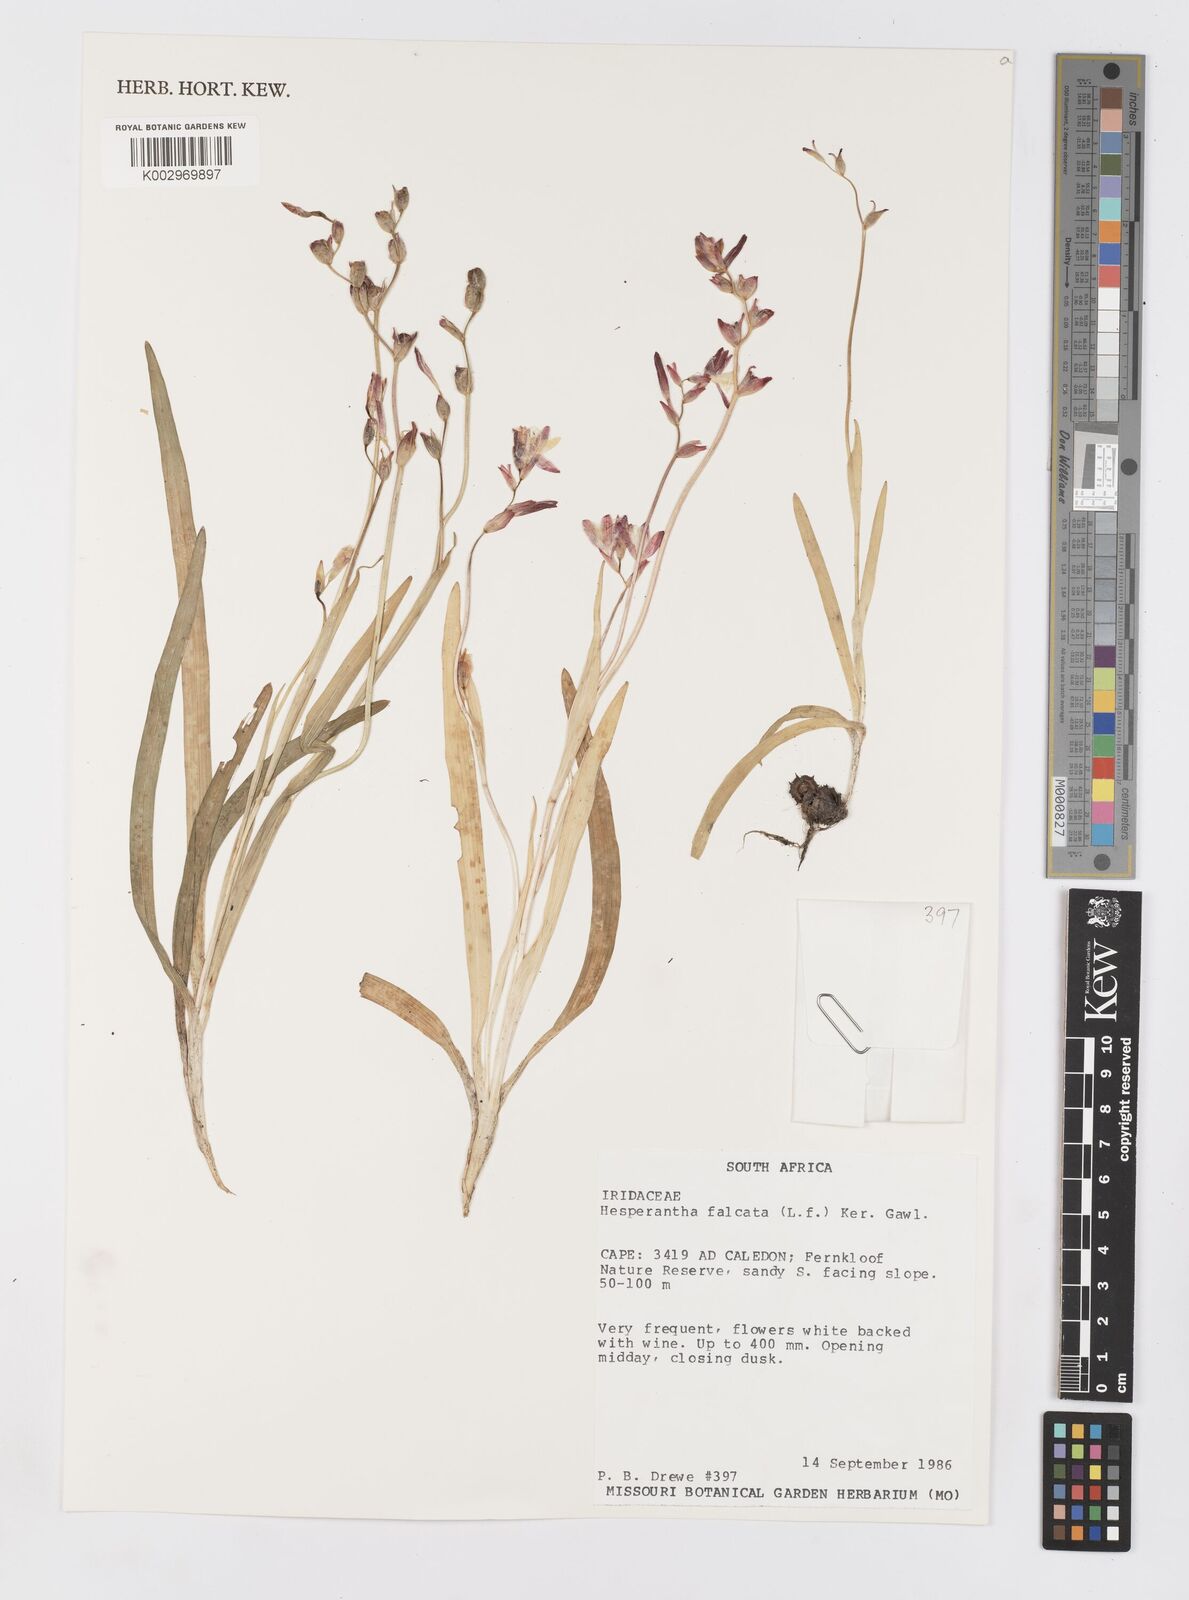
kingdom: Plantae
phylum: Tracheophyta
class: Liliopsida
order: Asparagales
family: Iridaceae
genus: Hesperantha
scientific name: Hesperantha falcata
